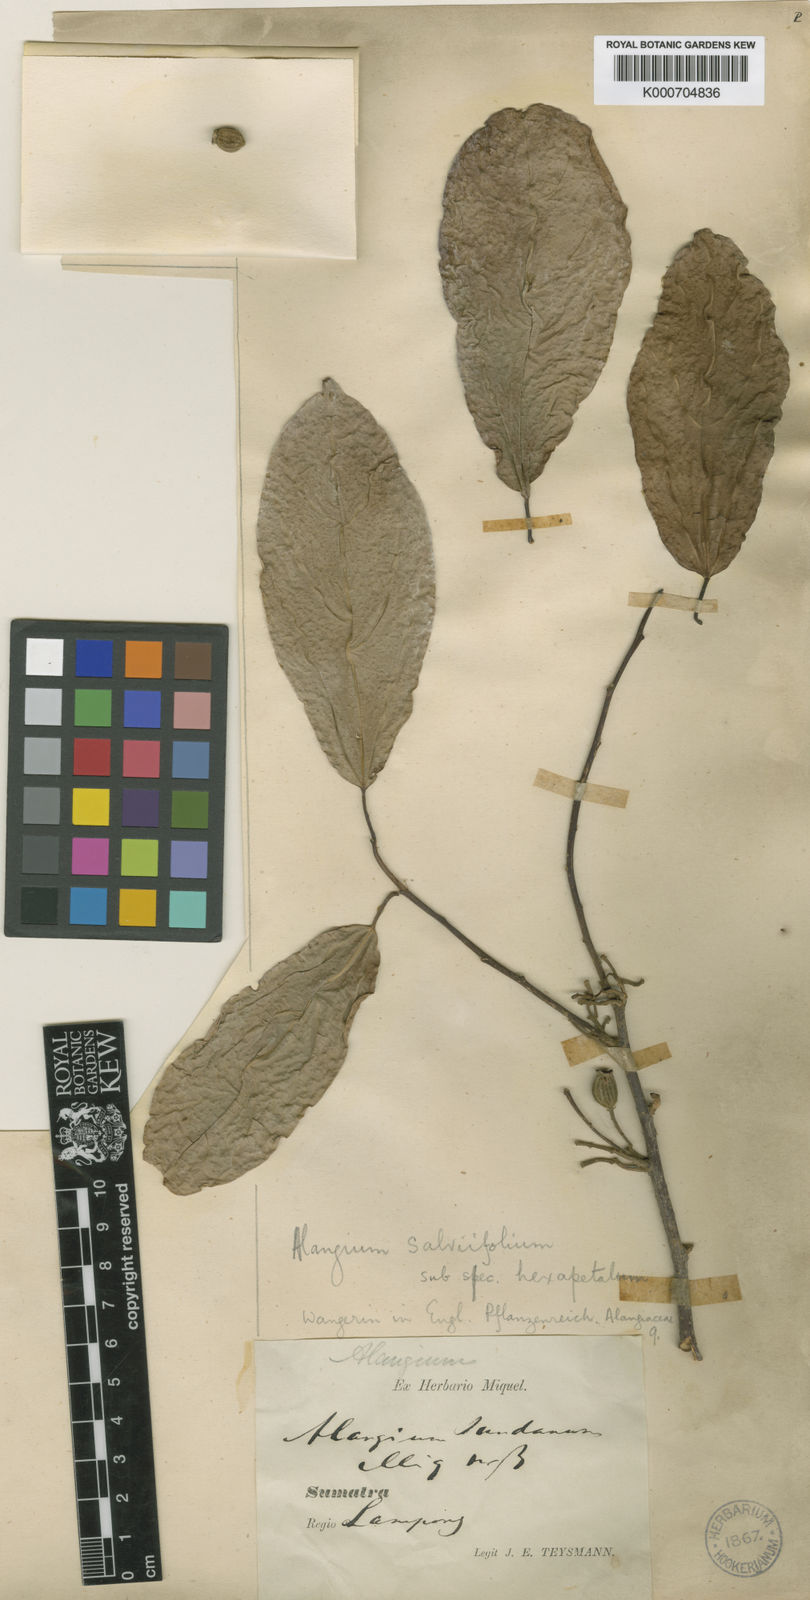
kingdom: Plantae
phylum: Tracheophyta
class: Magnoliopsida
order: Cornales
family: Cornaceae
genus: Alangium
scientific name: Alangium salviifolium
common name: Sage-leaf alangium
